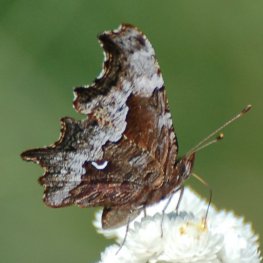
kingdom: Animalia
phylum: Arthropoda
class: Insecta
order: Lepidoptera
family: Nymphalidae
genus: Polygonia
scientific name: Polygonia gracilis
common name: Hoary Comma
